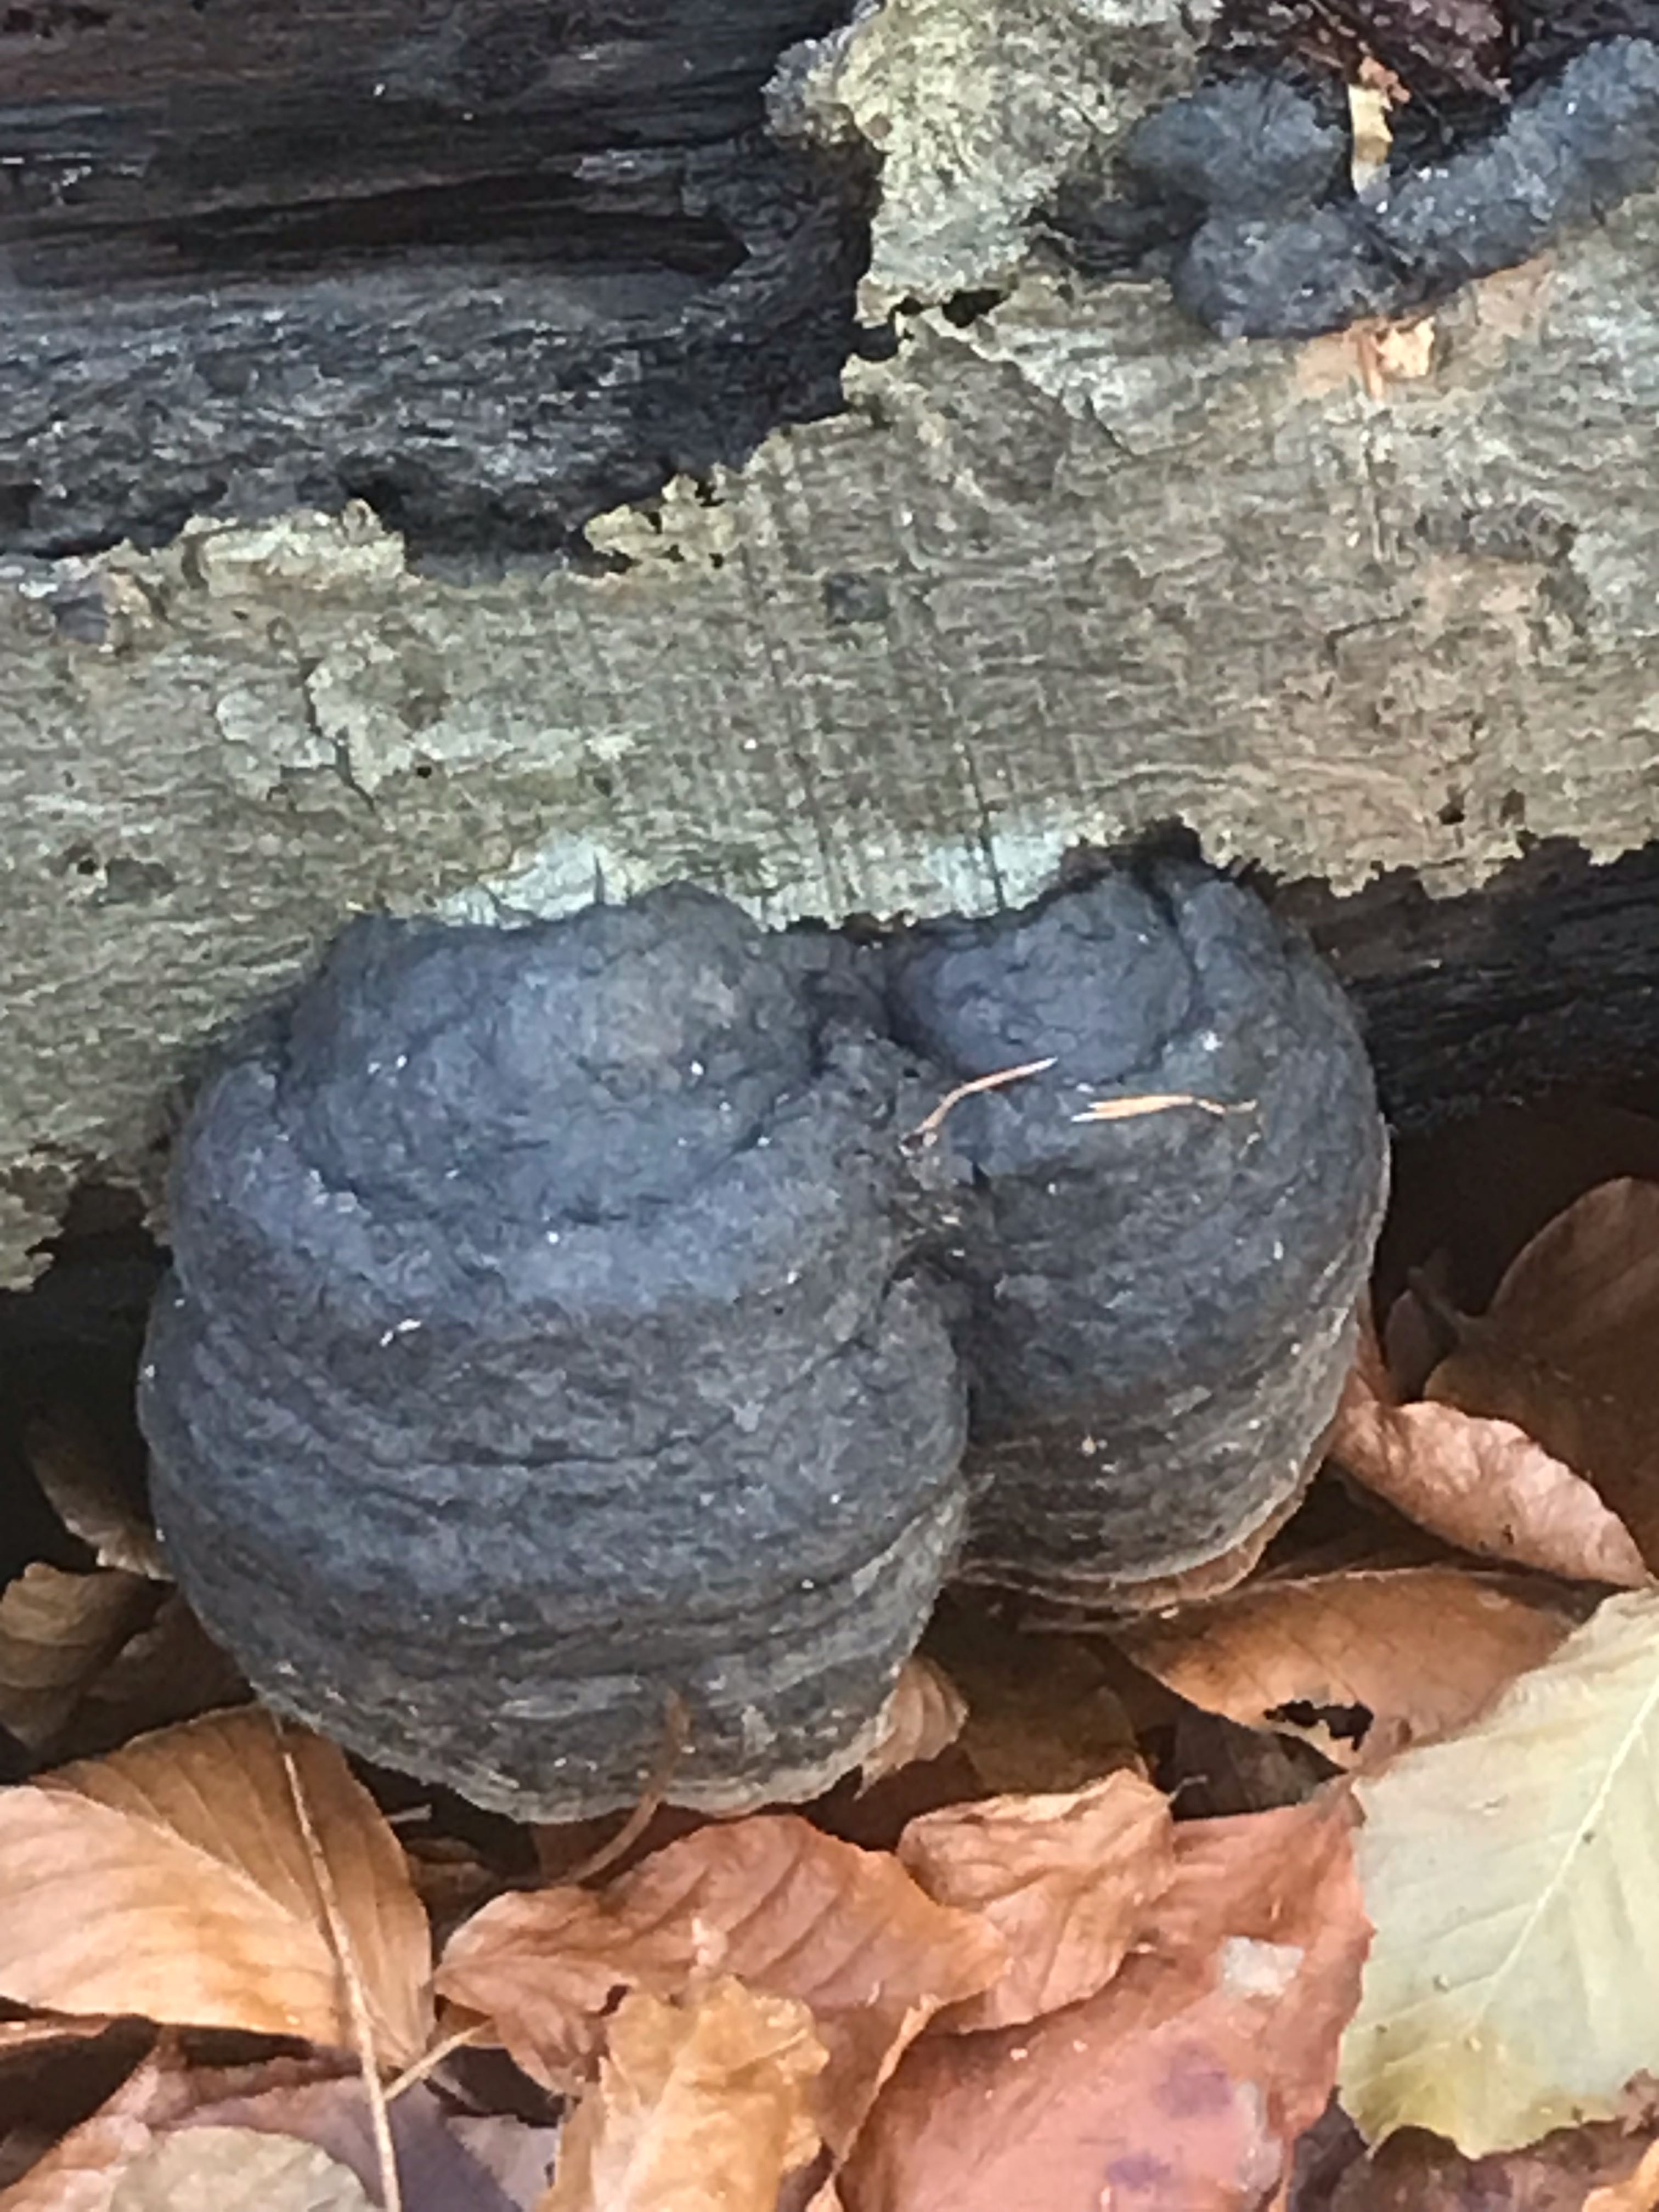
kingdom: Fungi
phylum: Basidiomycota
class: Agaricomycetes
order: Polyporales
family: Polyporaceae
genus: Fomes
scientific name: Fomes fomentarius
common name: tøndersvamp
